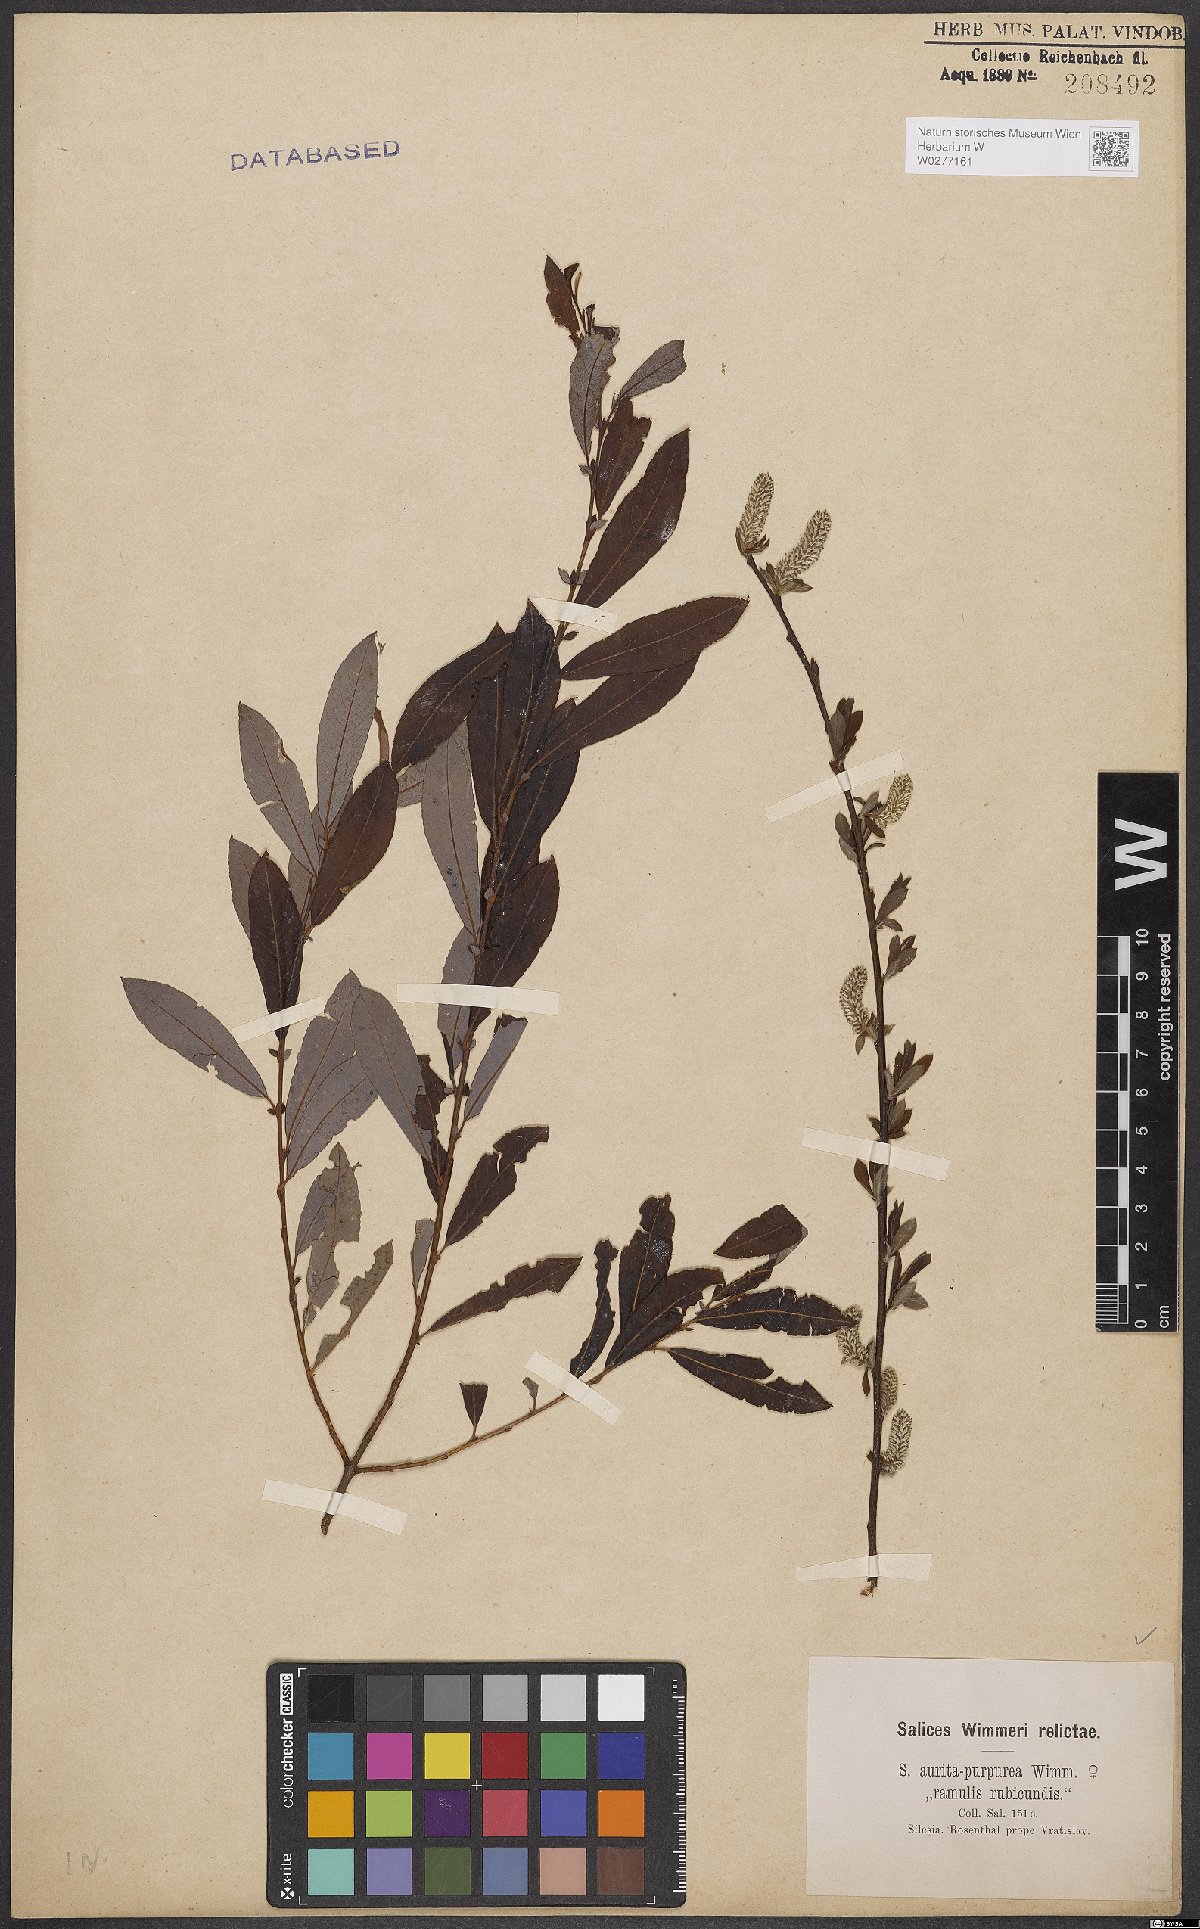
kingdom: Plantae
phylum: Tracheophyta
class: Magnoliopsida
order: Malpighiales
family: Salicaceae
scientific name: Salicaceae
